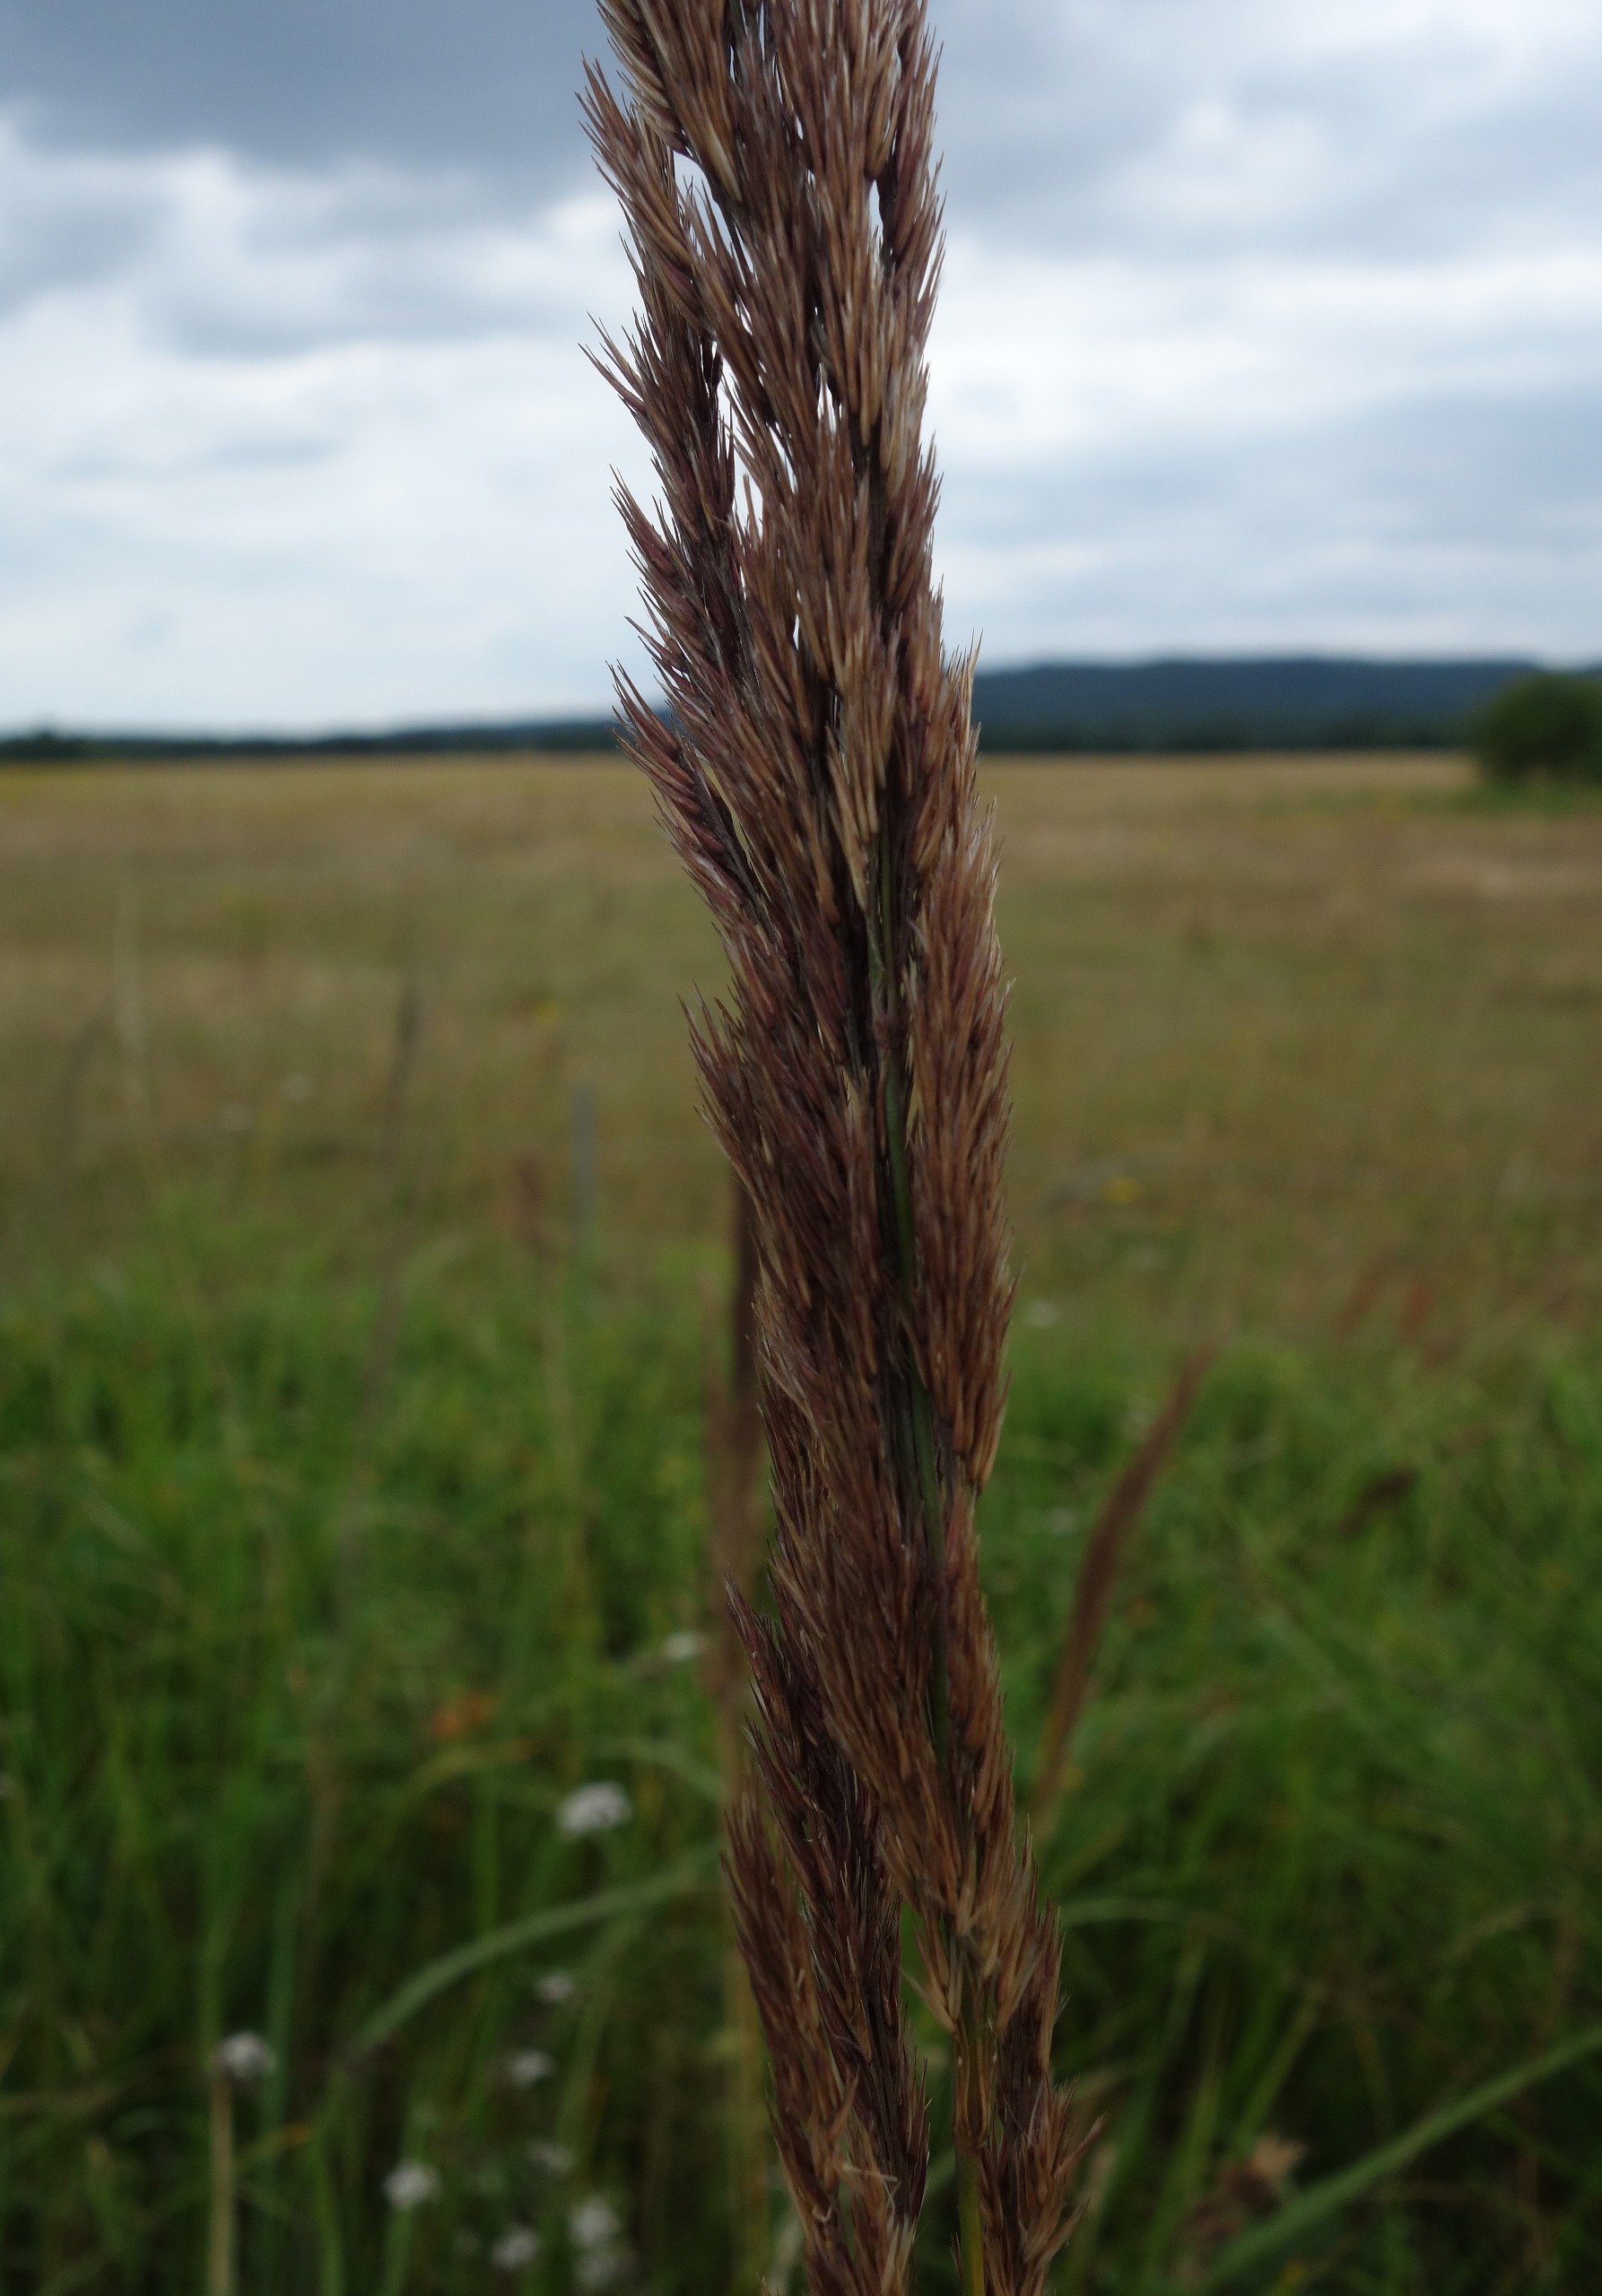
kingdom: Plantae
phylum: Tracheophyta
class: Liliopsida
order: Poales
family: Poaceae
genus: Calamagrostis
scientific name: Calamagrostis epigejos
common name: Bjerg-rørhvene
